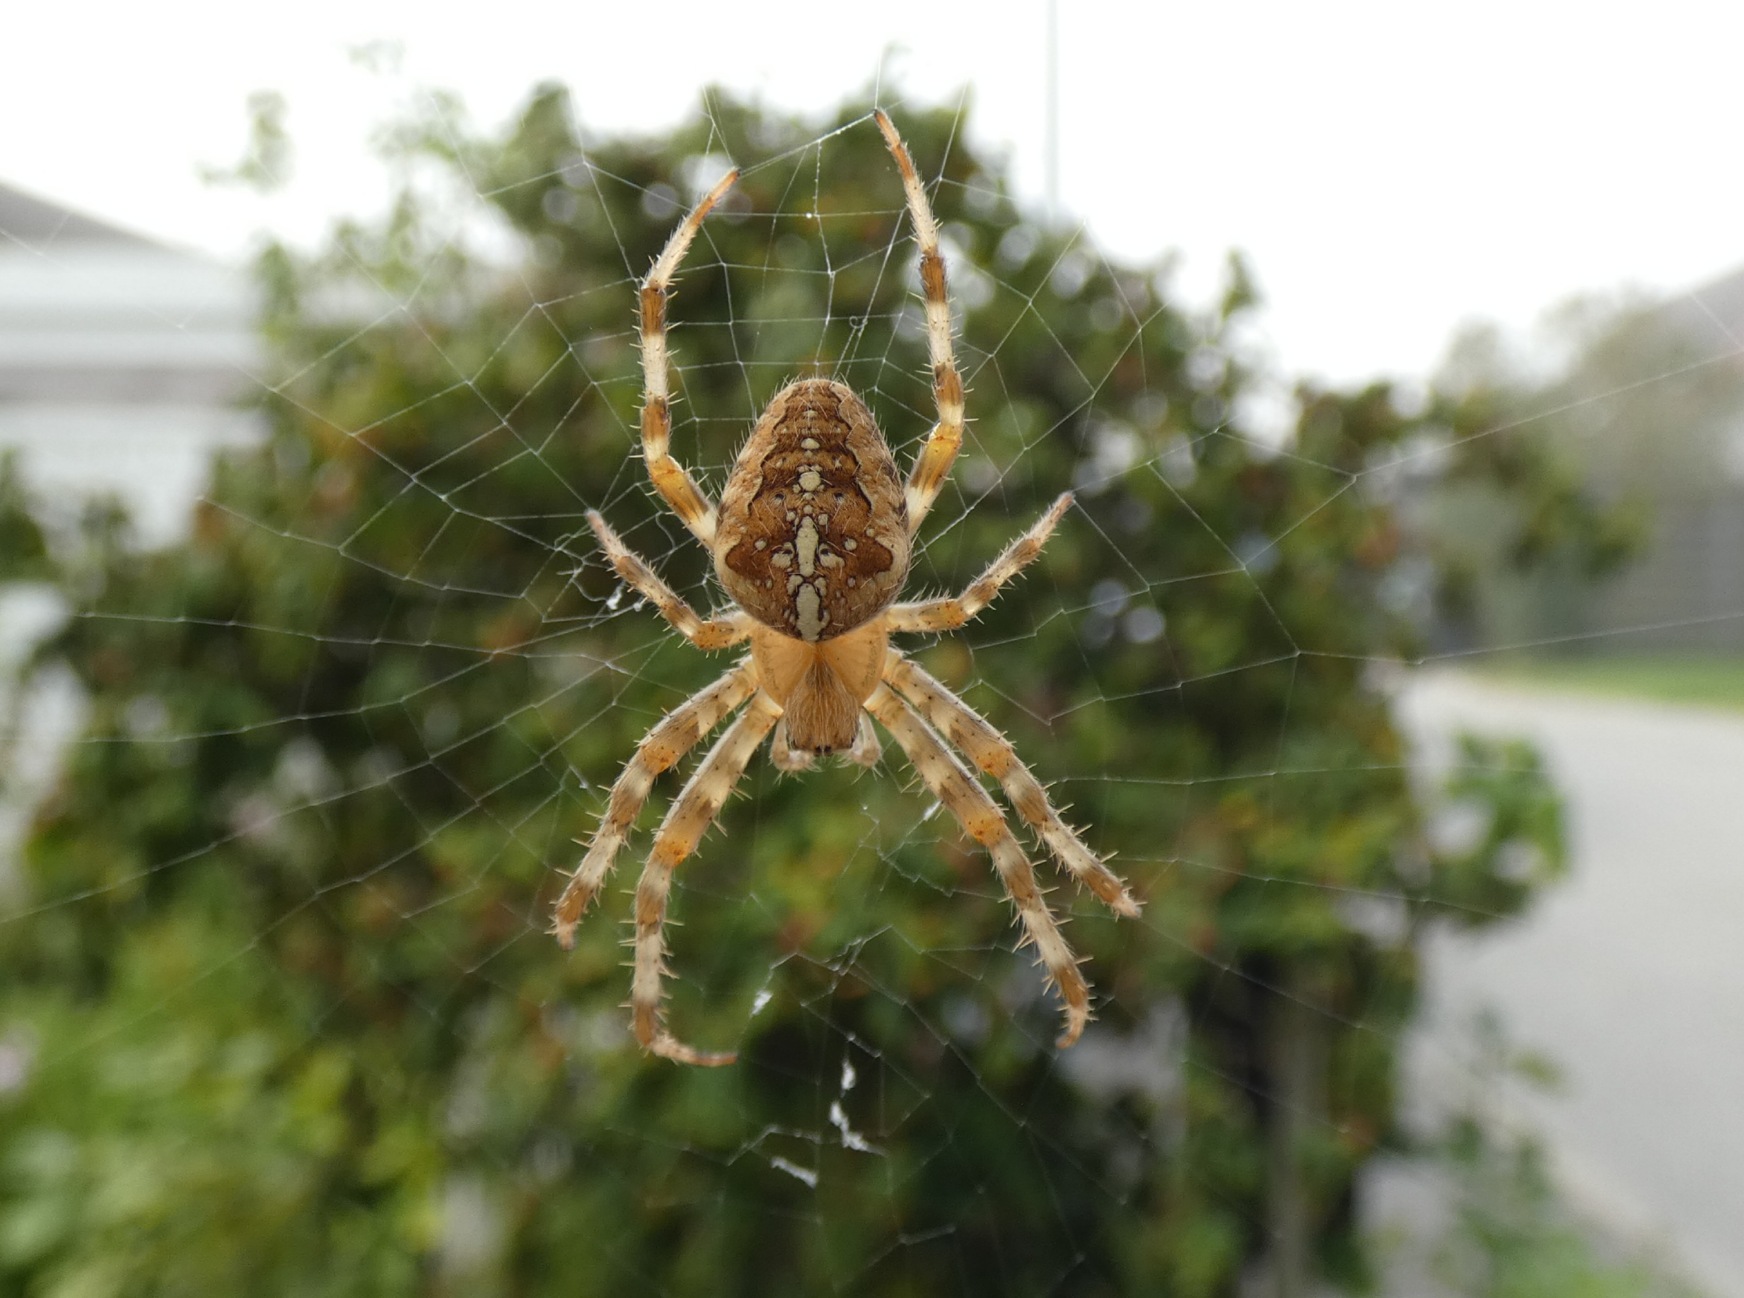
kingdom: Animalia
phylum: Arthropoda
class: Arachnida
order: Araneae
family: Araneidae
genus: Araneus
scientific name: Araneus diadematus
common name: Korsedderkop
